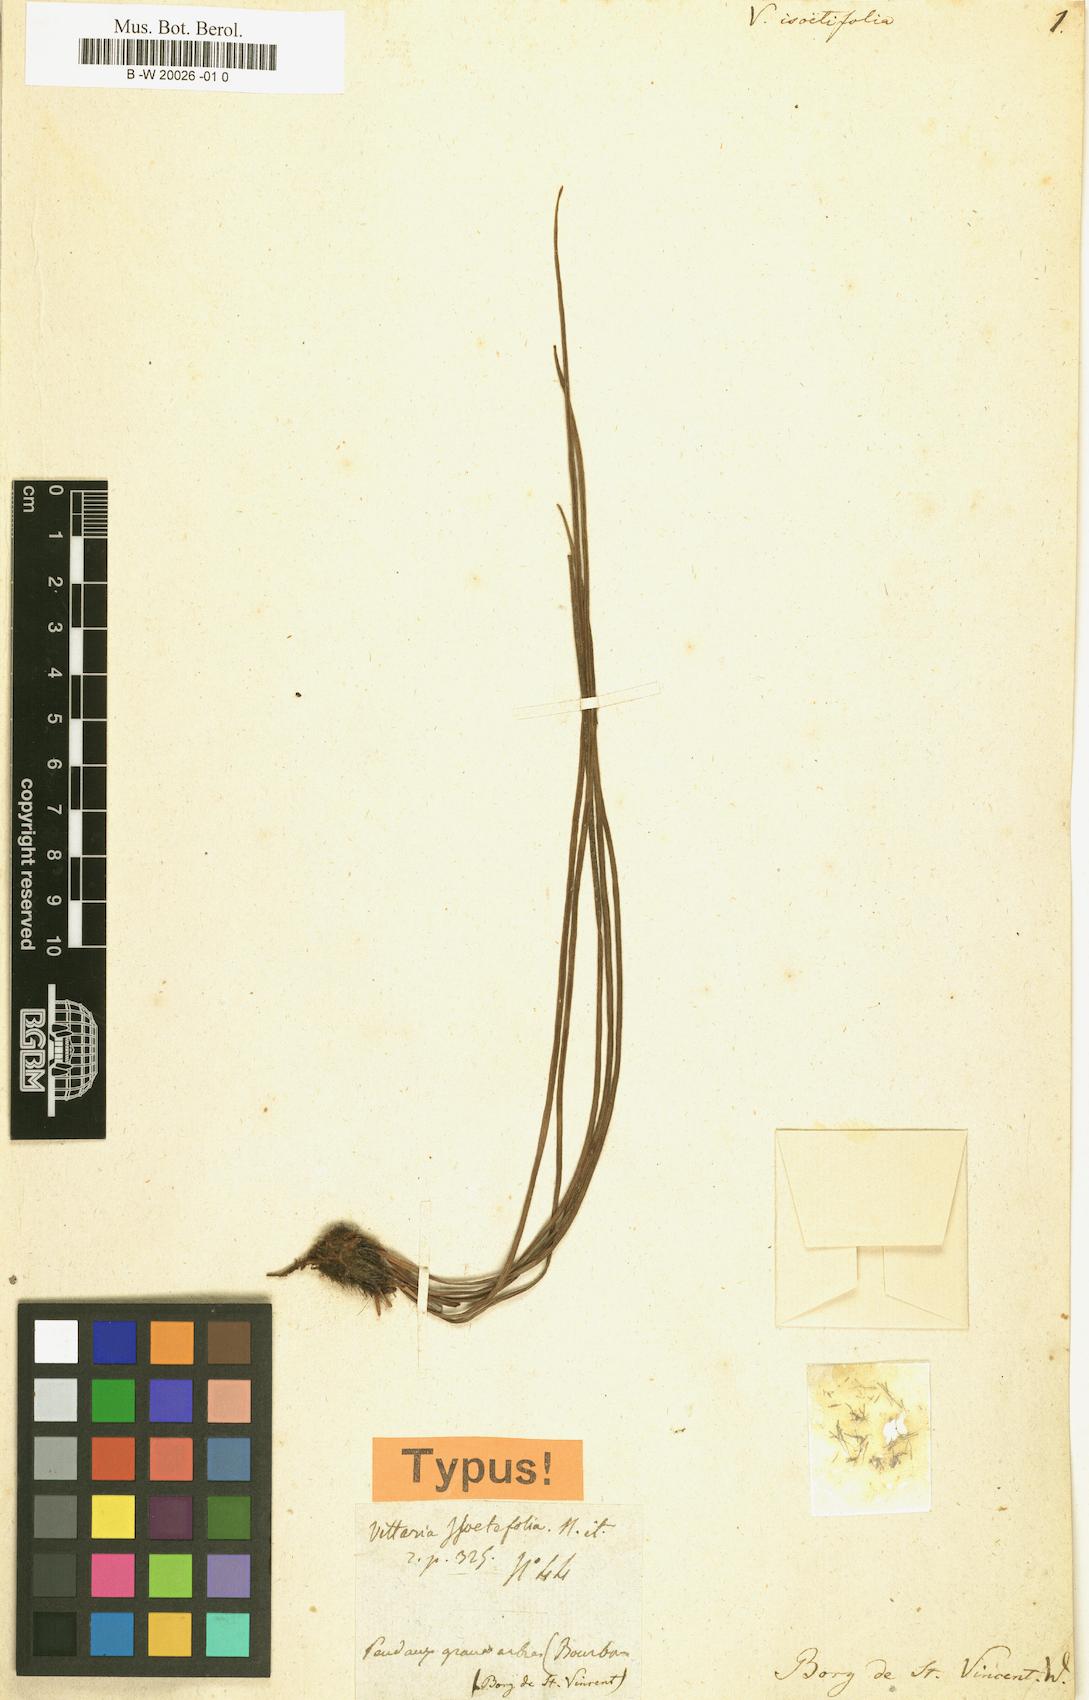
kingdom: Plantae
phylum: Tracheophyta
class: Polypodiopsida
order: Polypodiales
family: Pteridaceae
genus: Vittaria
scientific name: Vittaria isoetifolia
